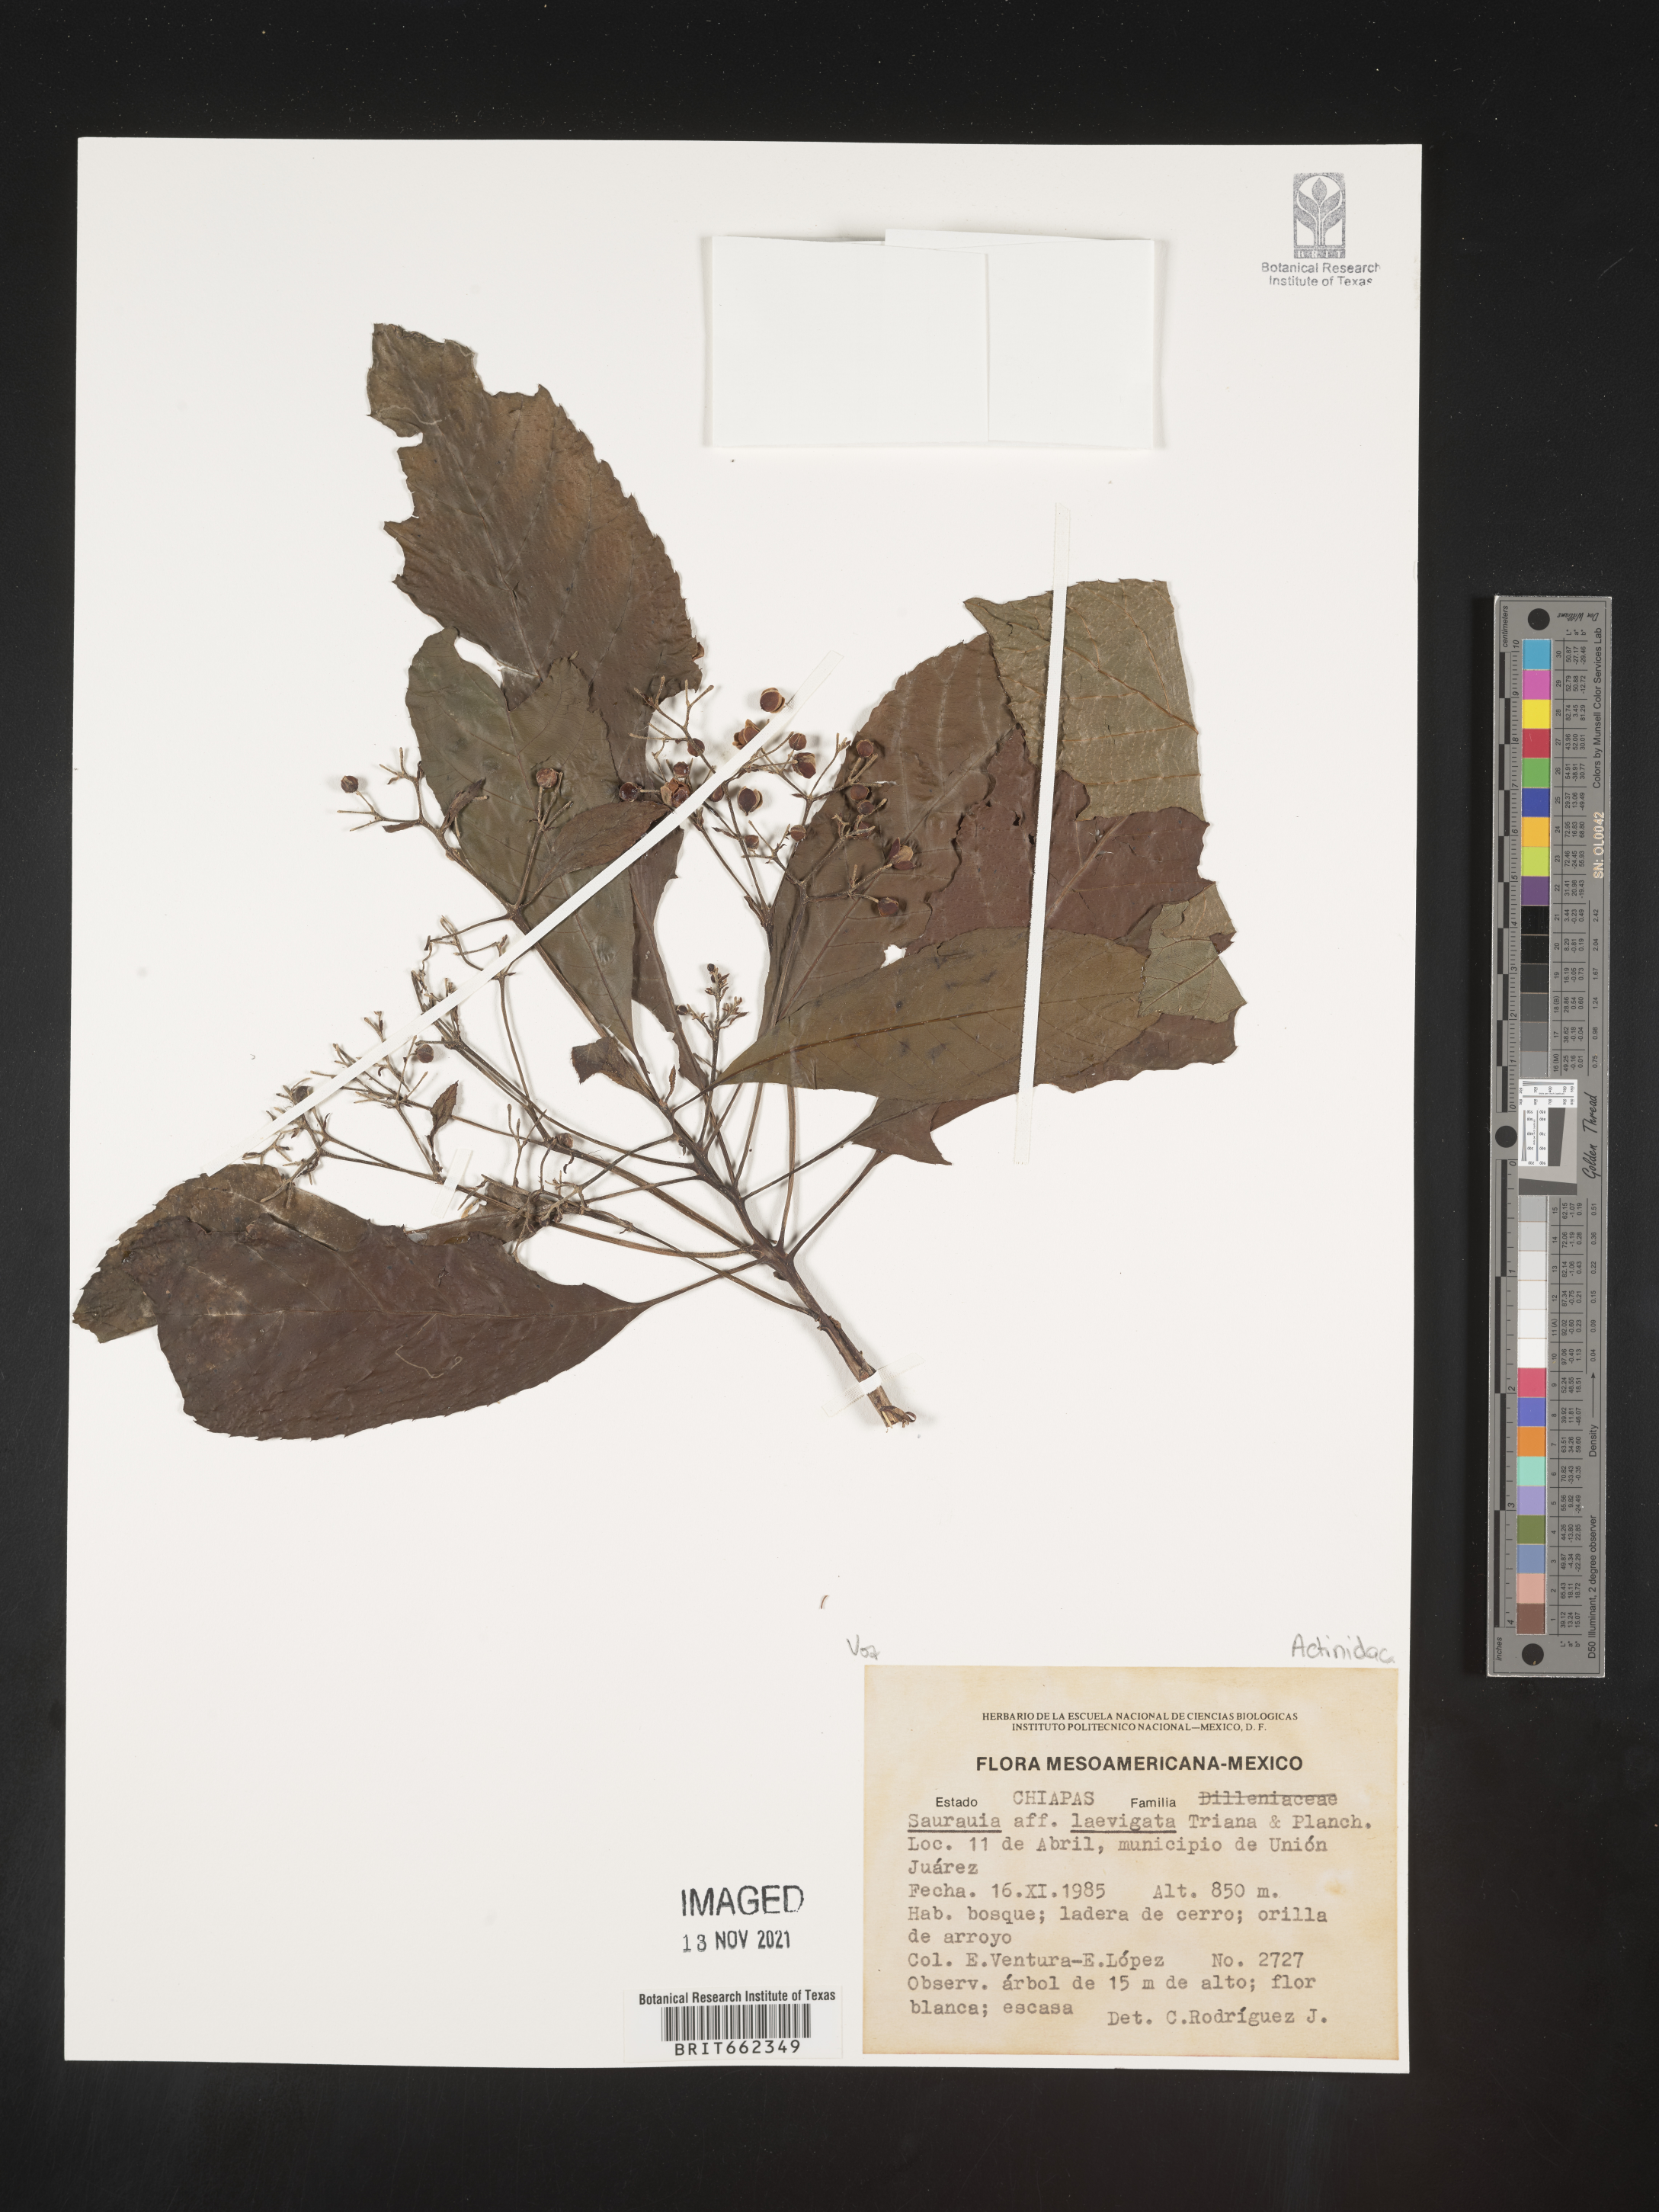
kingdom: Plantae
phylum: Tracheophyta
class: Magnoliopsida
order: Ericales
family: Actinidiaceae
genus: Saurauia
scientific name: Saurauia
